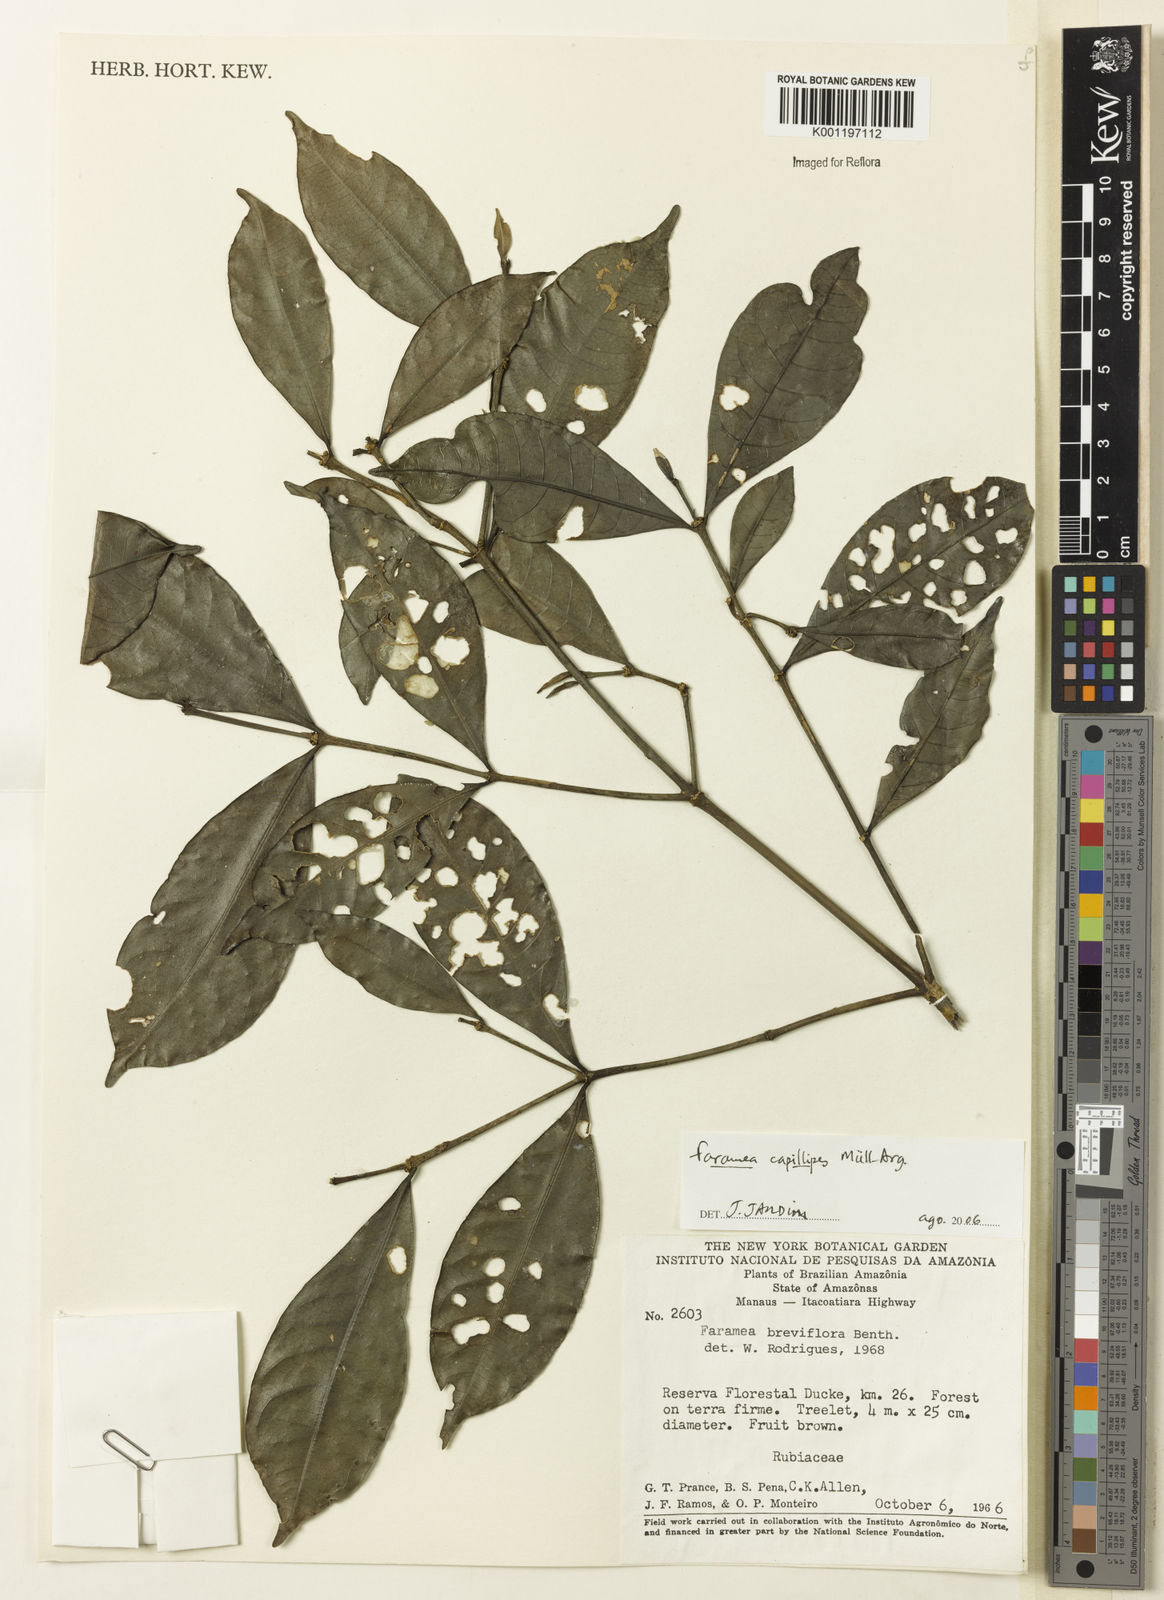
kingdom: Plantae
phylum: Tracheophyta
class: Magnoliopsida
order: Gentianales
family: Rubiaceae
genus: Faramea
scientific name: Faramea
